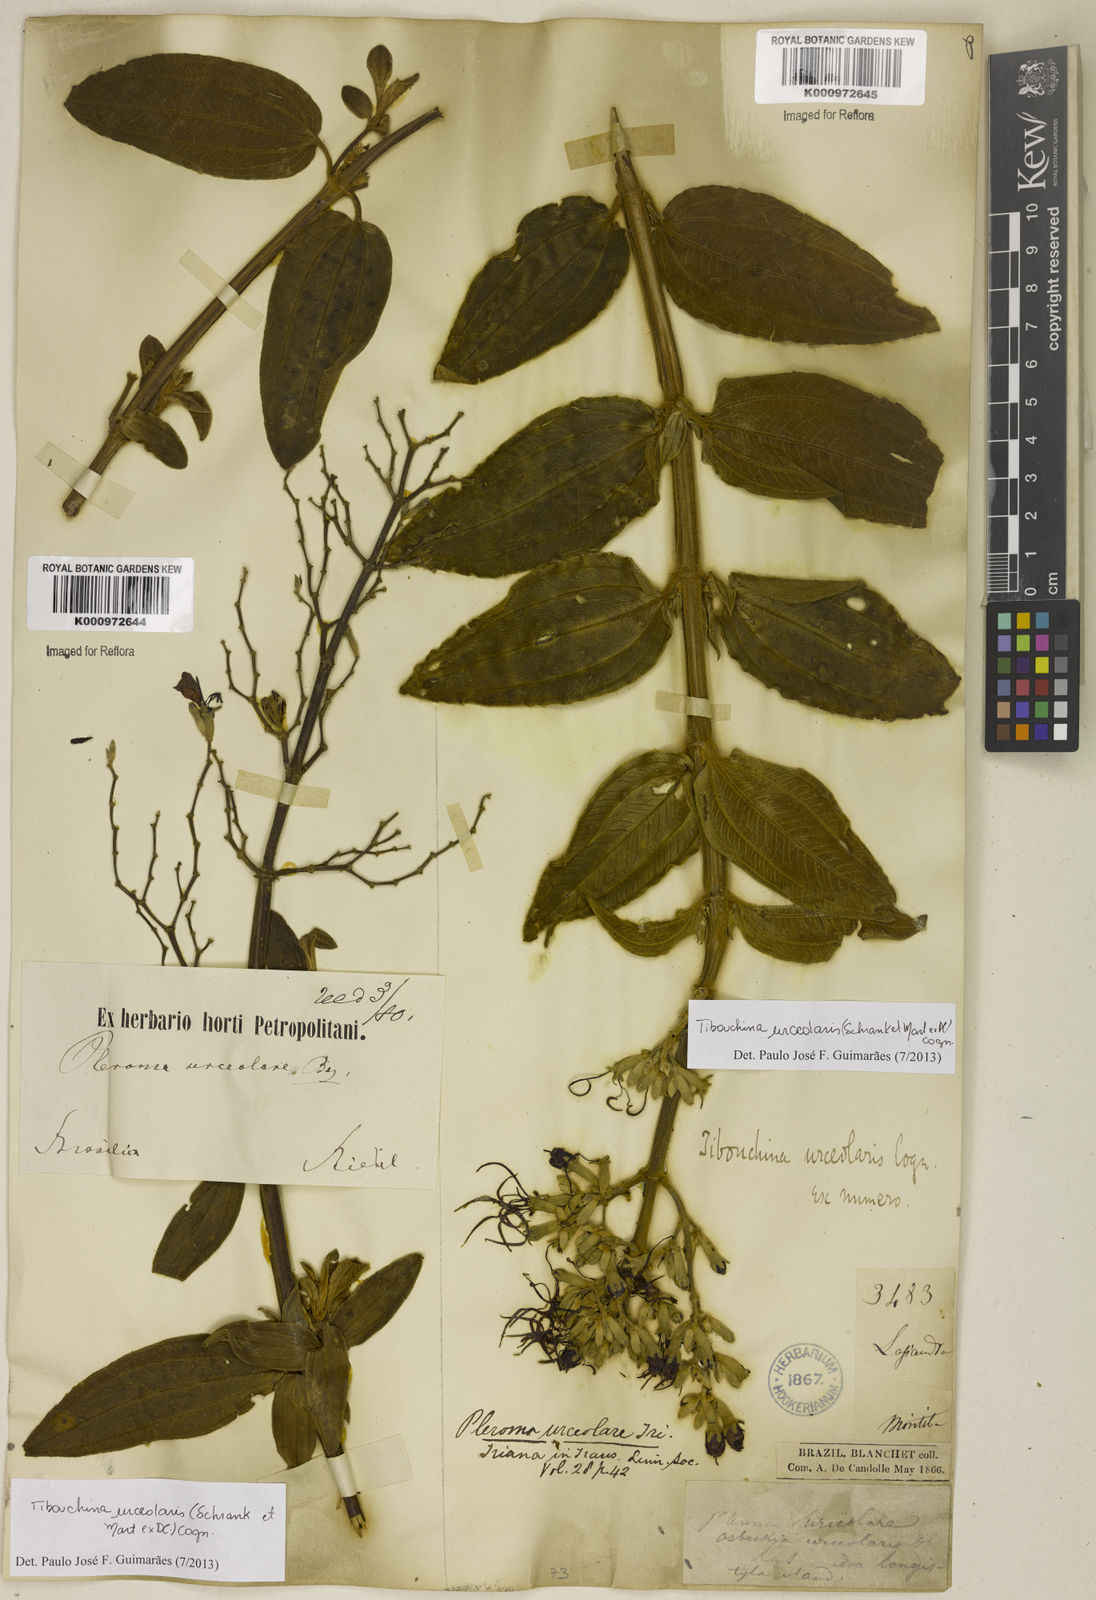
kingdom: Plantae
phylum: Tracheophyta
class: Magnoliopsida
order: Myrtales
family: Melastomataceae
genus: Pleroma
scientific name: Pleroma urceolare
